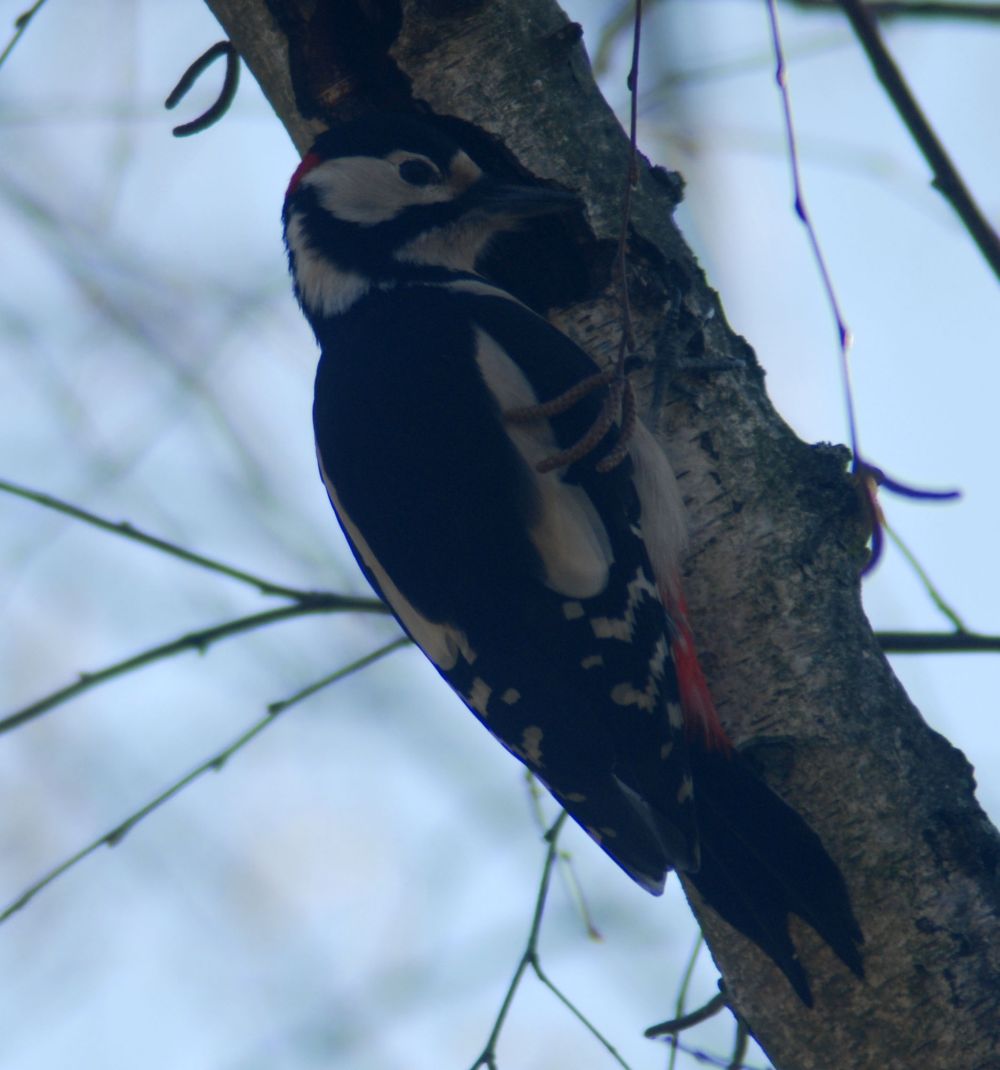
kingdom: Animalia
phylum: Chordata
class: Aves
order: Piciformes
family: Picidae
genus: Dendrocopos
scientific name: Dendrocopos major
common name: Great spotted woodpecker
